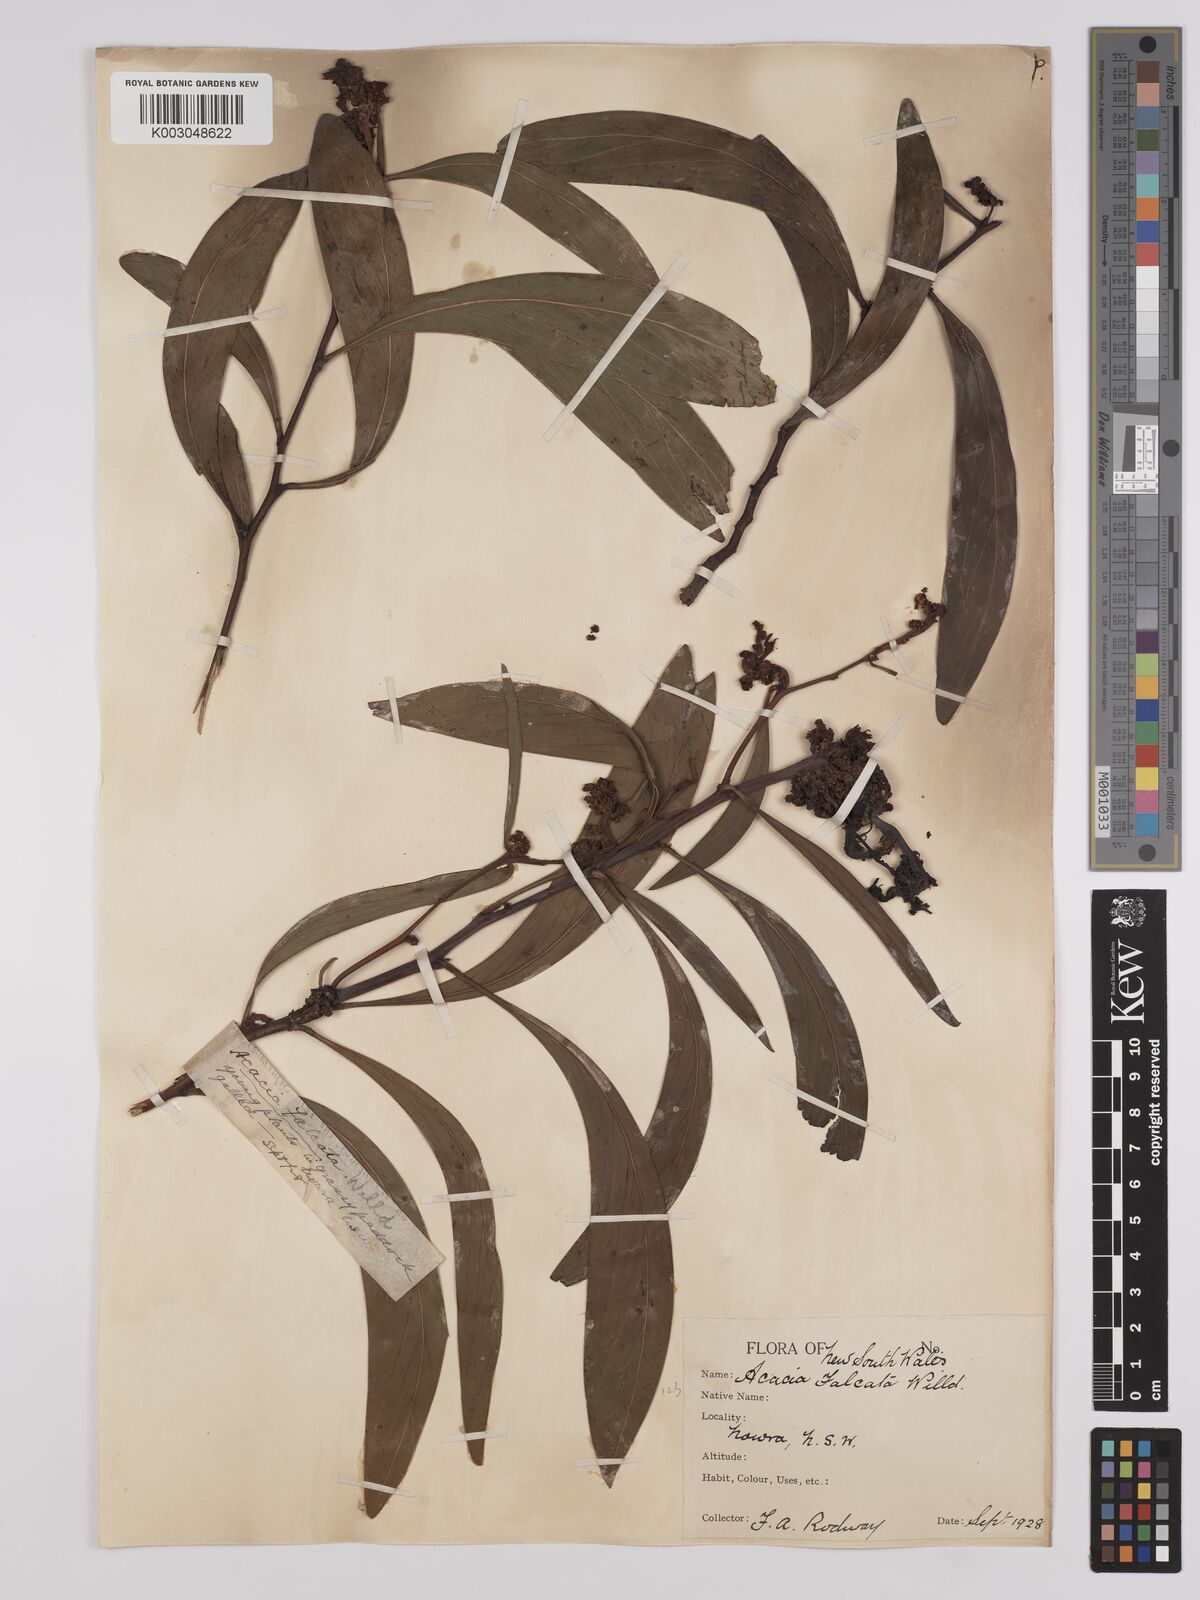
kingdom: Plantae
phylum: Tracheophyta
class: Magnoliopsida
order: Fabales
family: Fabaceae
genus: Acacia
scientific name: Acacia falcata
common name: Burra acacia
